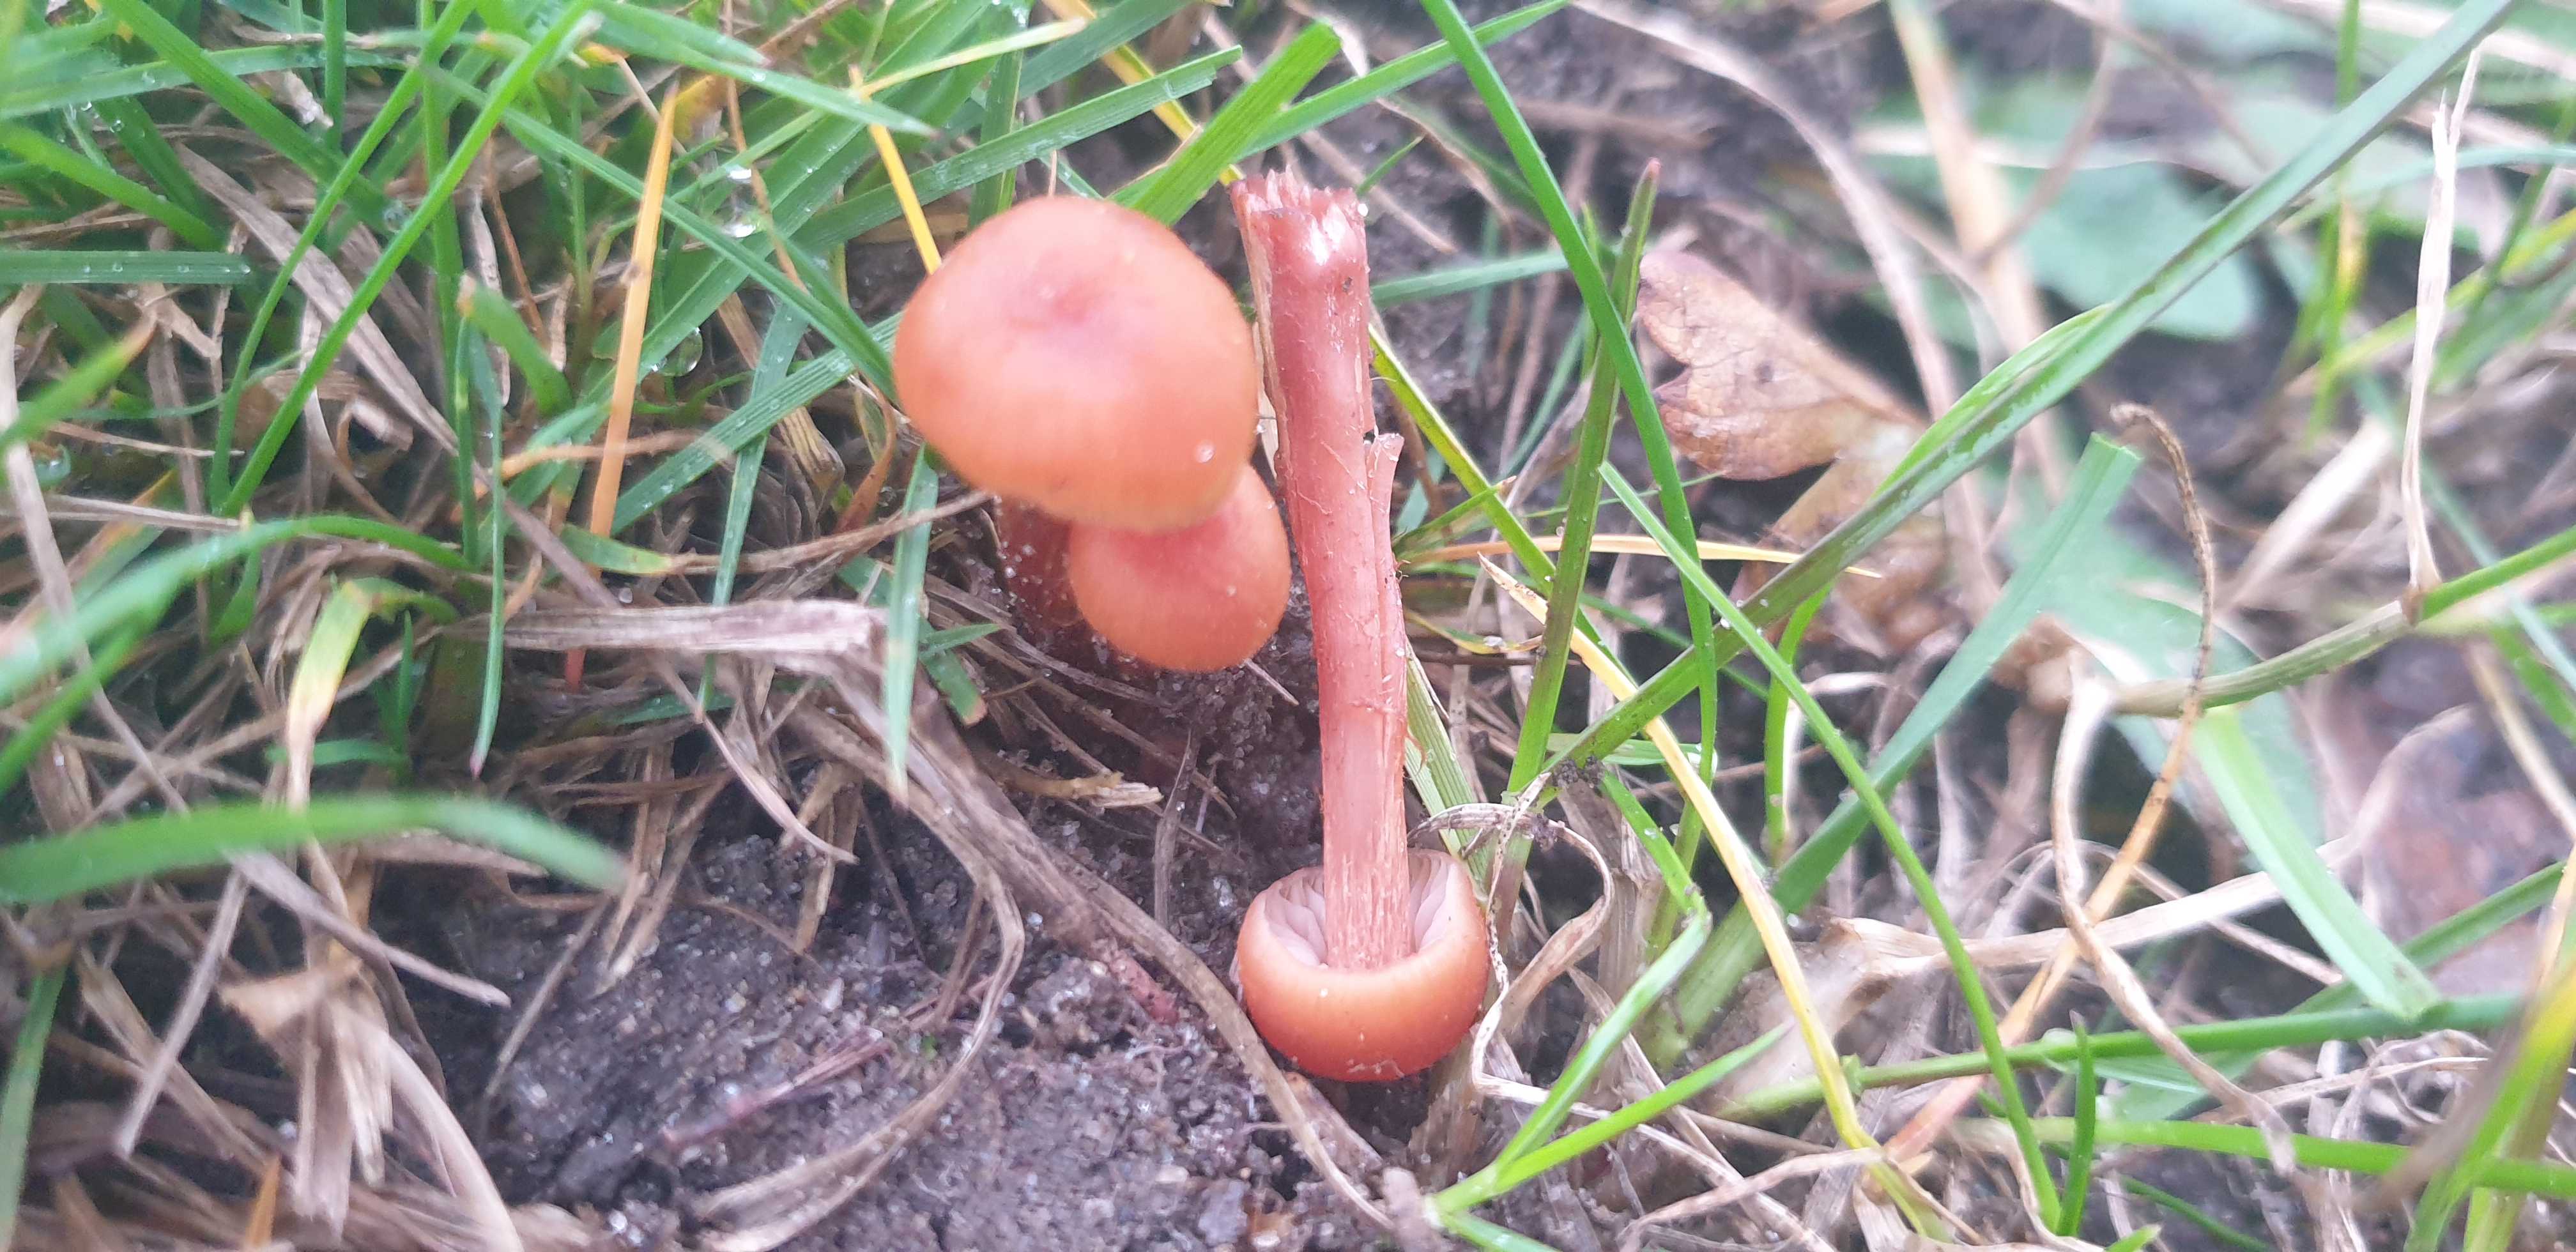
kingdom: Fungi
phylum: Basidiomycota
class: Agaricomycetes
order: Agaricales
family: Hydnangiaceae
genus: Laccaria
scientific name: Laccaria laccata
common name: rød ametysthat
